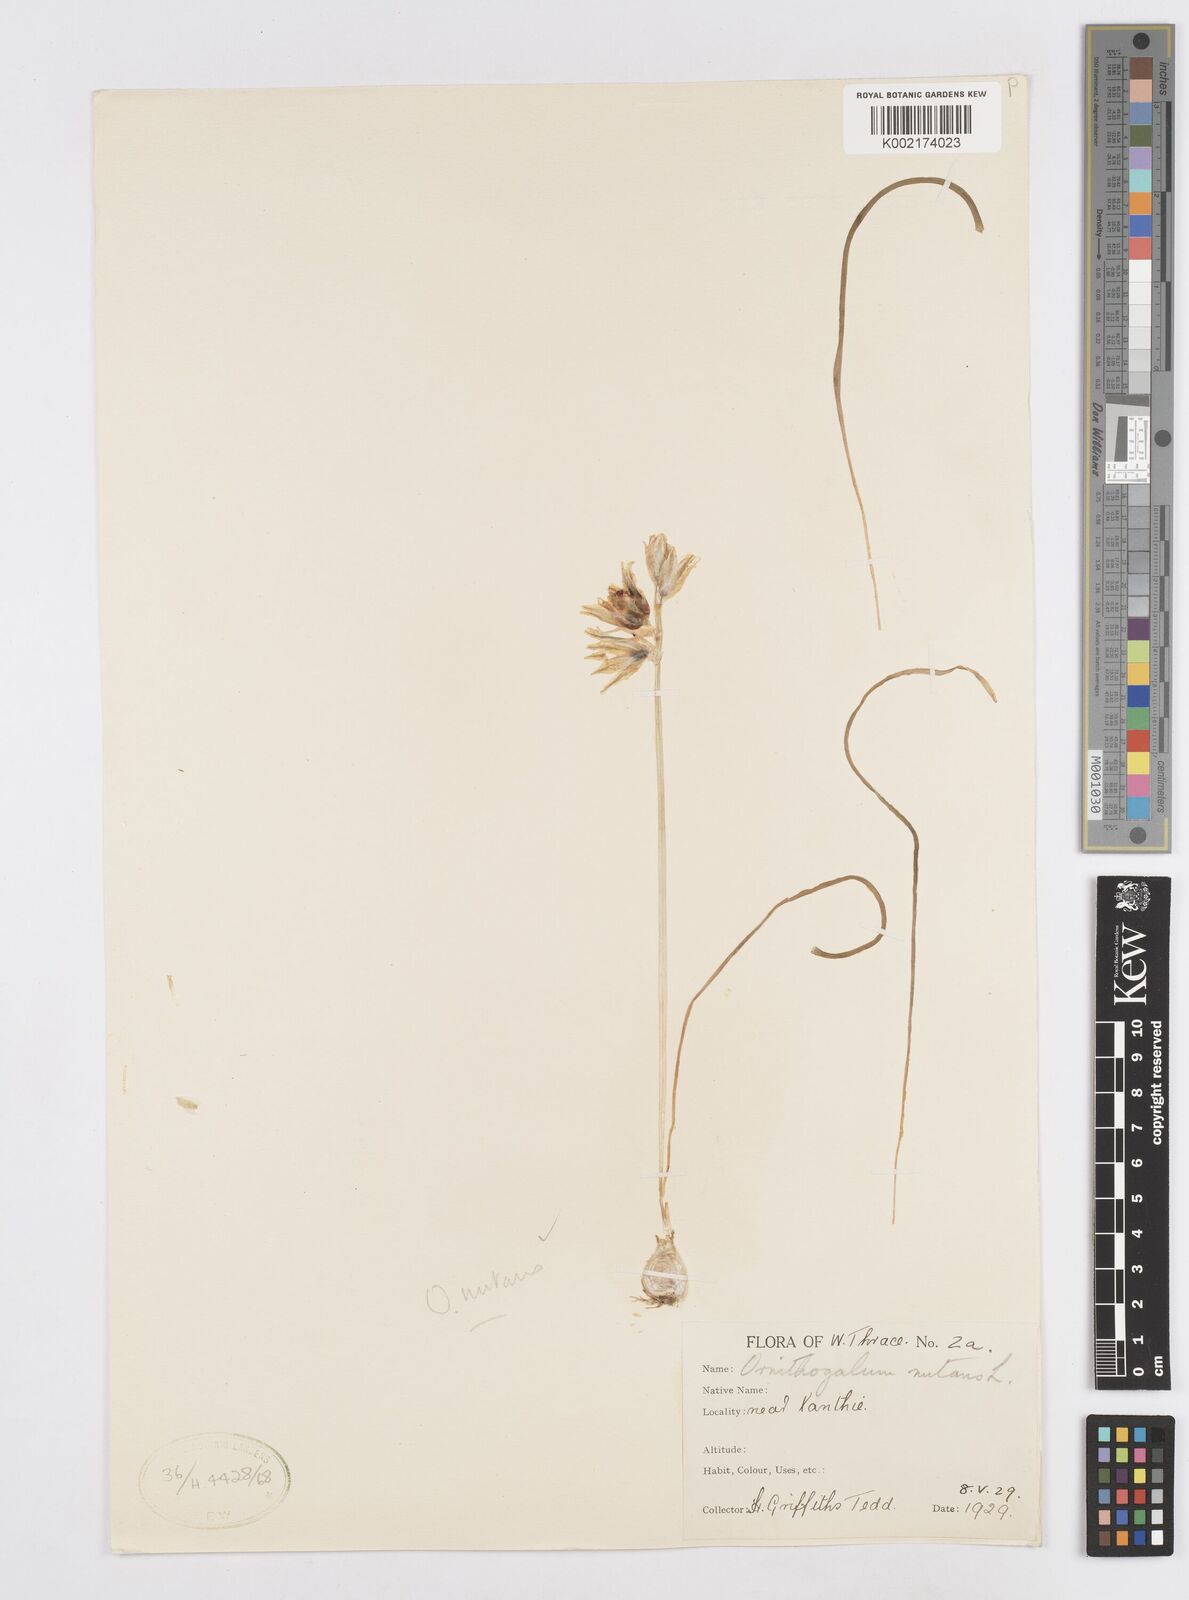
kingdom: Plantae
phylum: Tracheophyta
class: Liliopsida
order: Asparagales
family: Asparagaceae
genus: Ornithogalum
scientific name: Ornithogalum nutans
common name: Drooping star-of-bethlehem
